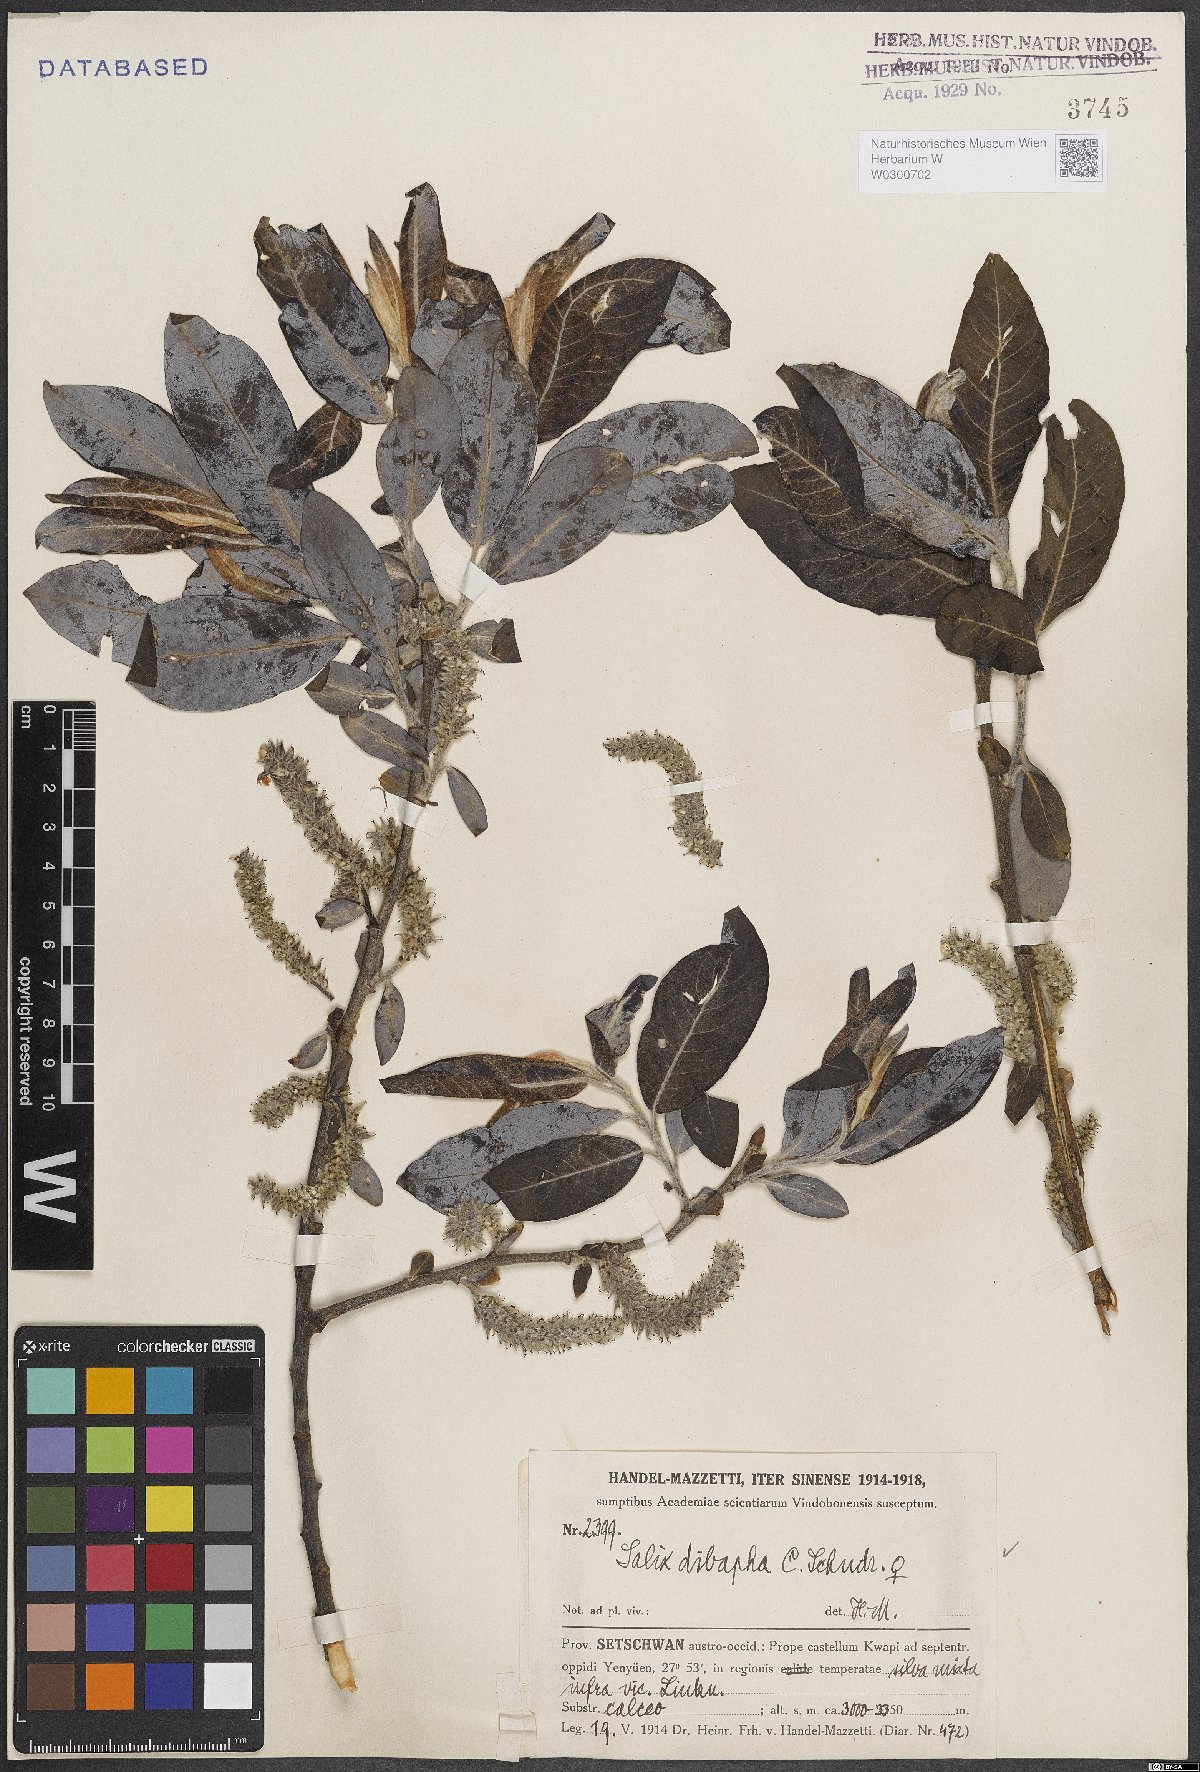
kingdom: Plantae
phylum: Tracheophyta
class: Magnoliopsida
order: Malpighiales
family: Salicaceae
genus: Salix
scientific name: Salix dibapha
